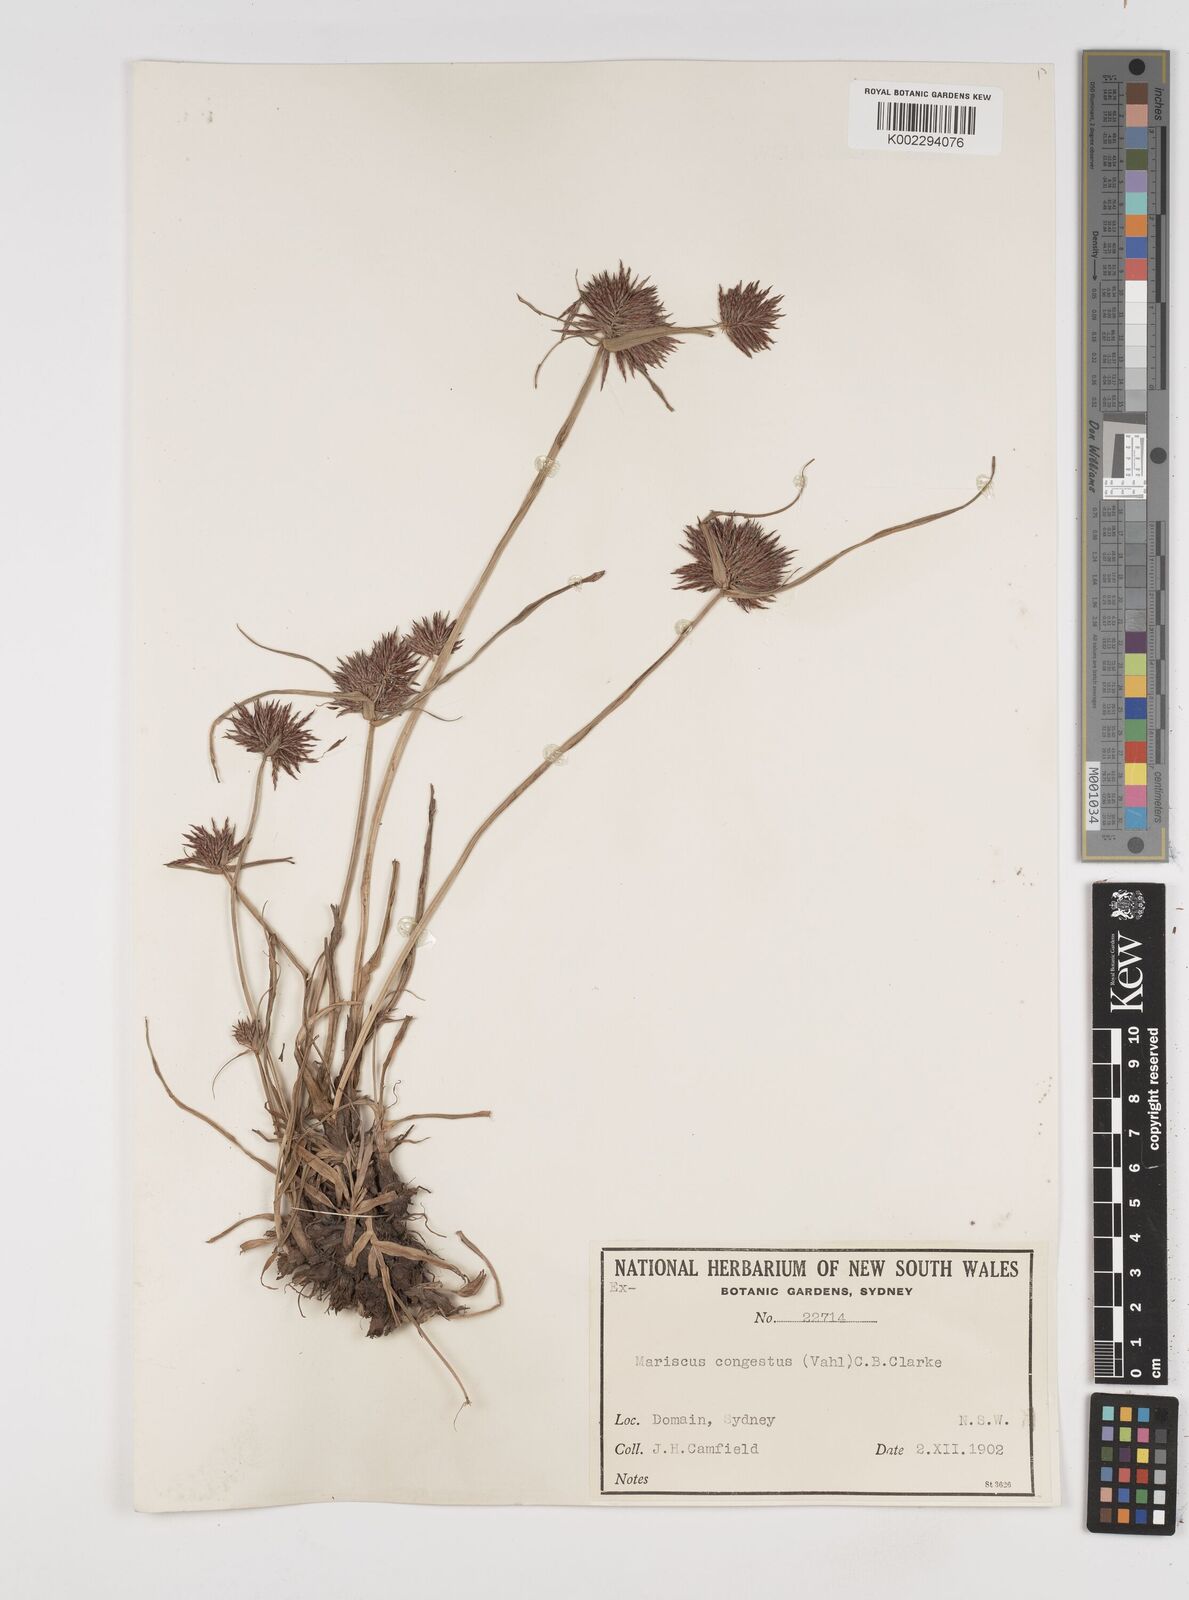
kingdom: Plantae
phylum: Tracheophyta
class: Liliopsida
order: Poales
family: Cyperaceae
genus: Cyperus
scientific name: Cyperus congestus
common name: Dense flat sedge
